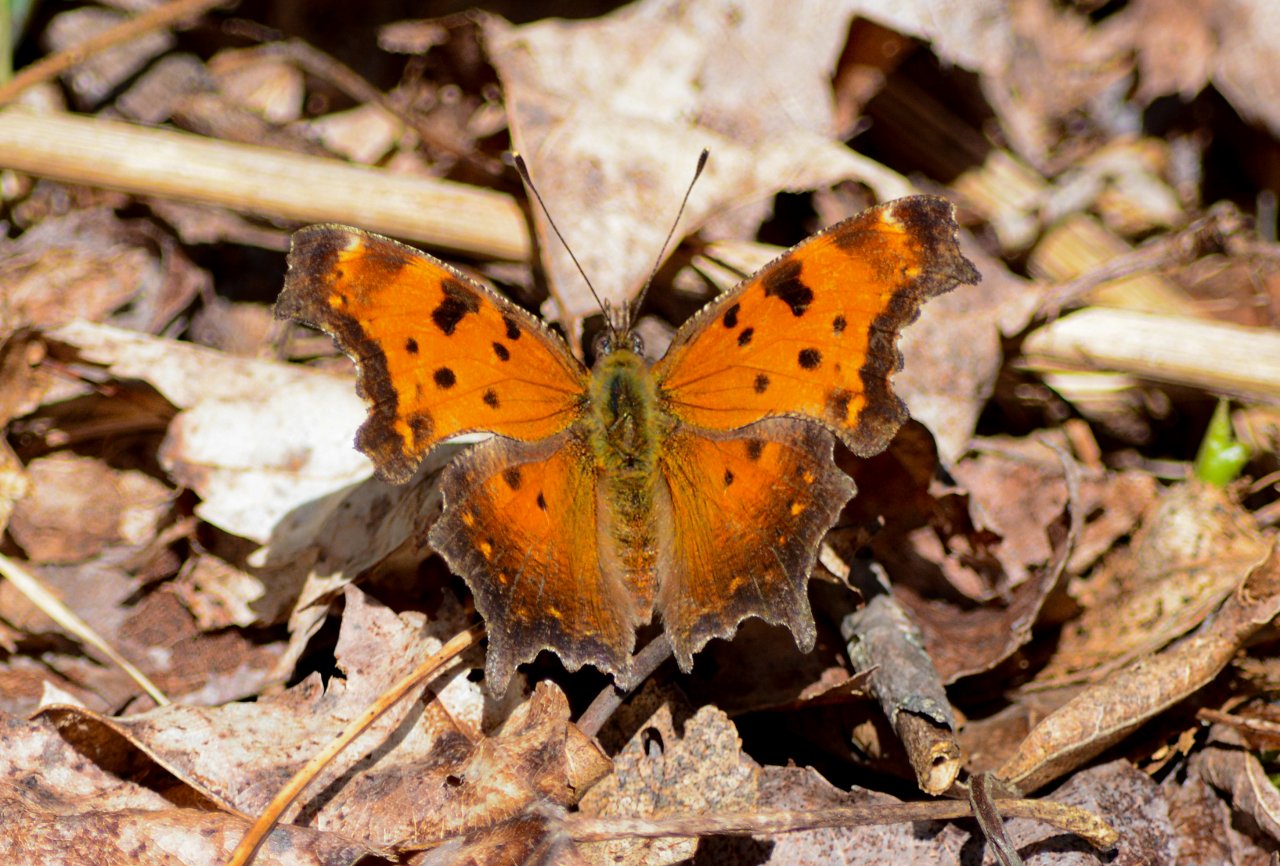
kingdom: Animalia
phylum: Arthropoda
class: Insecta
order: Lepidoptera
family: Nymphalidae
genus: Polygonia
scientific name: Polygonia progne
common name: Gray Comma
